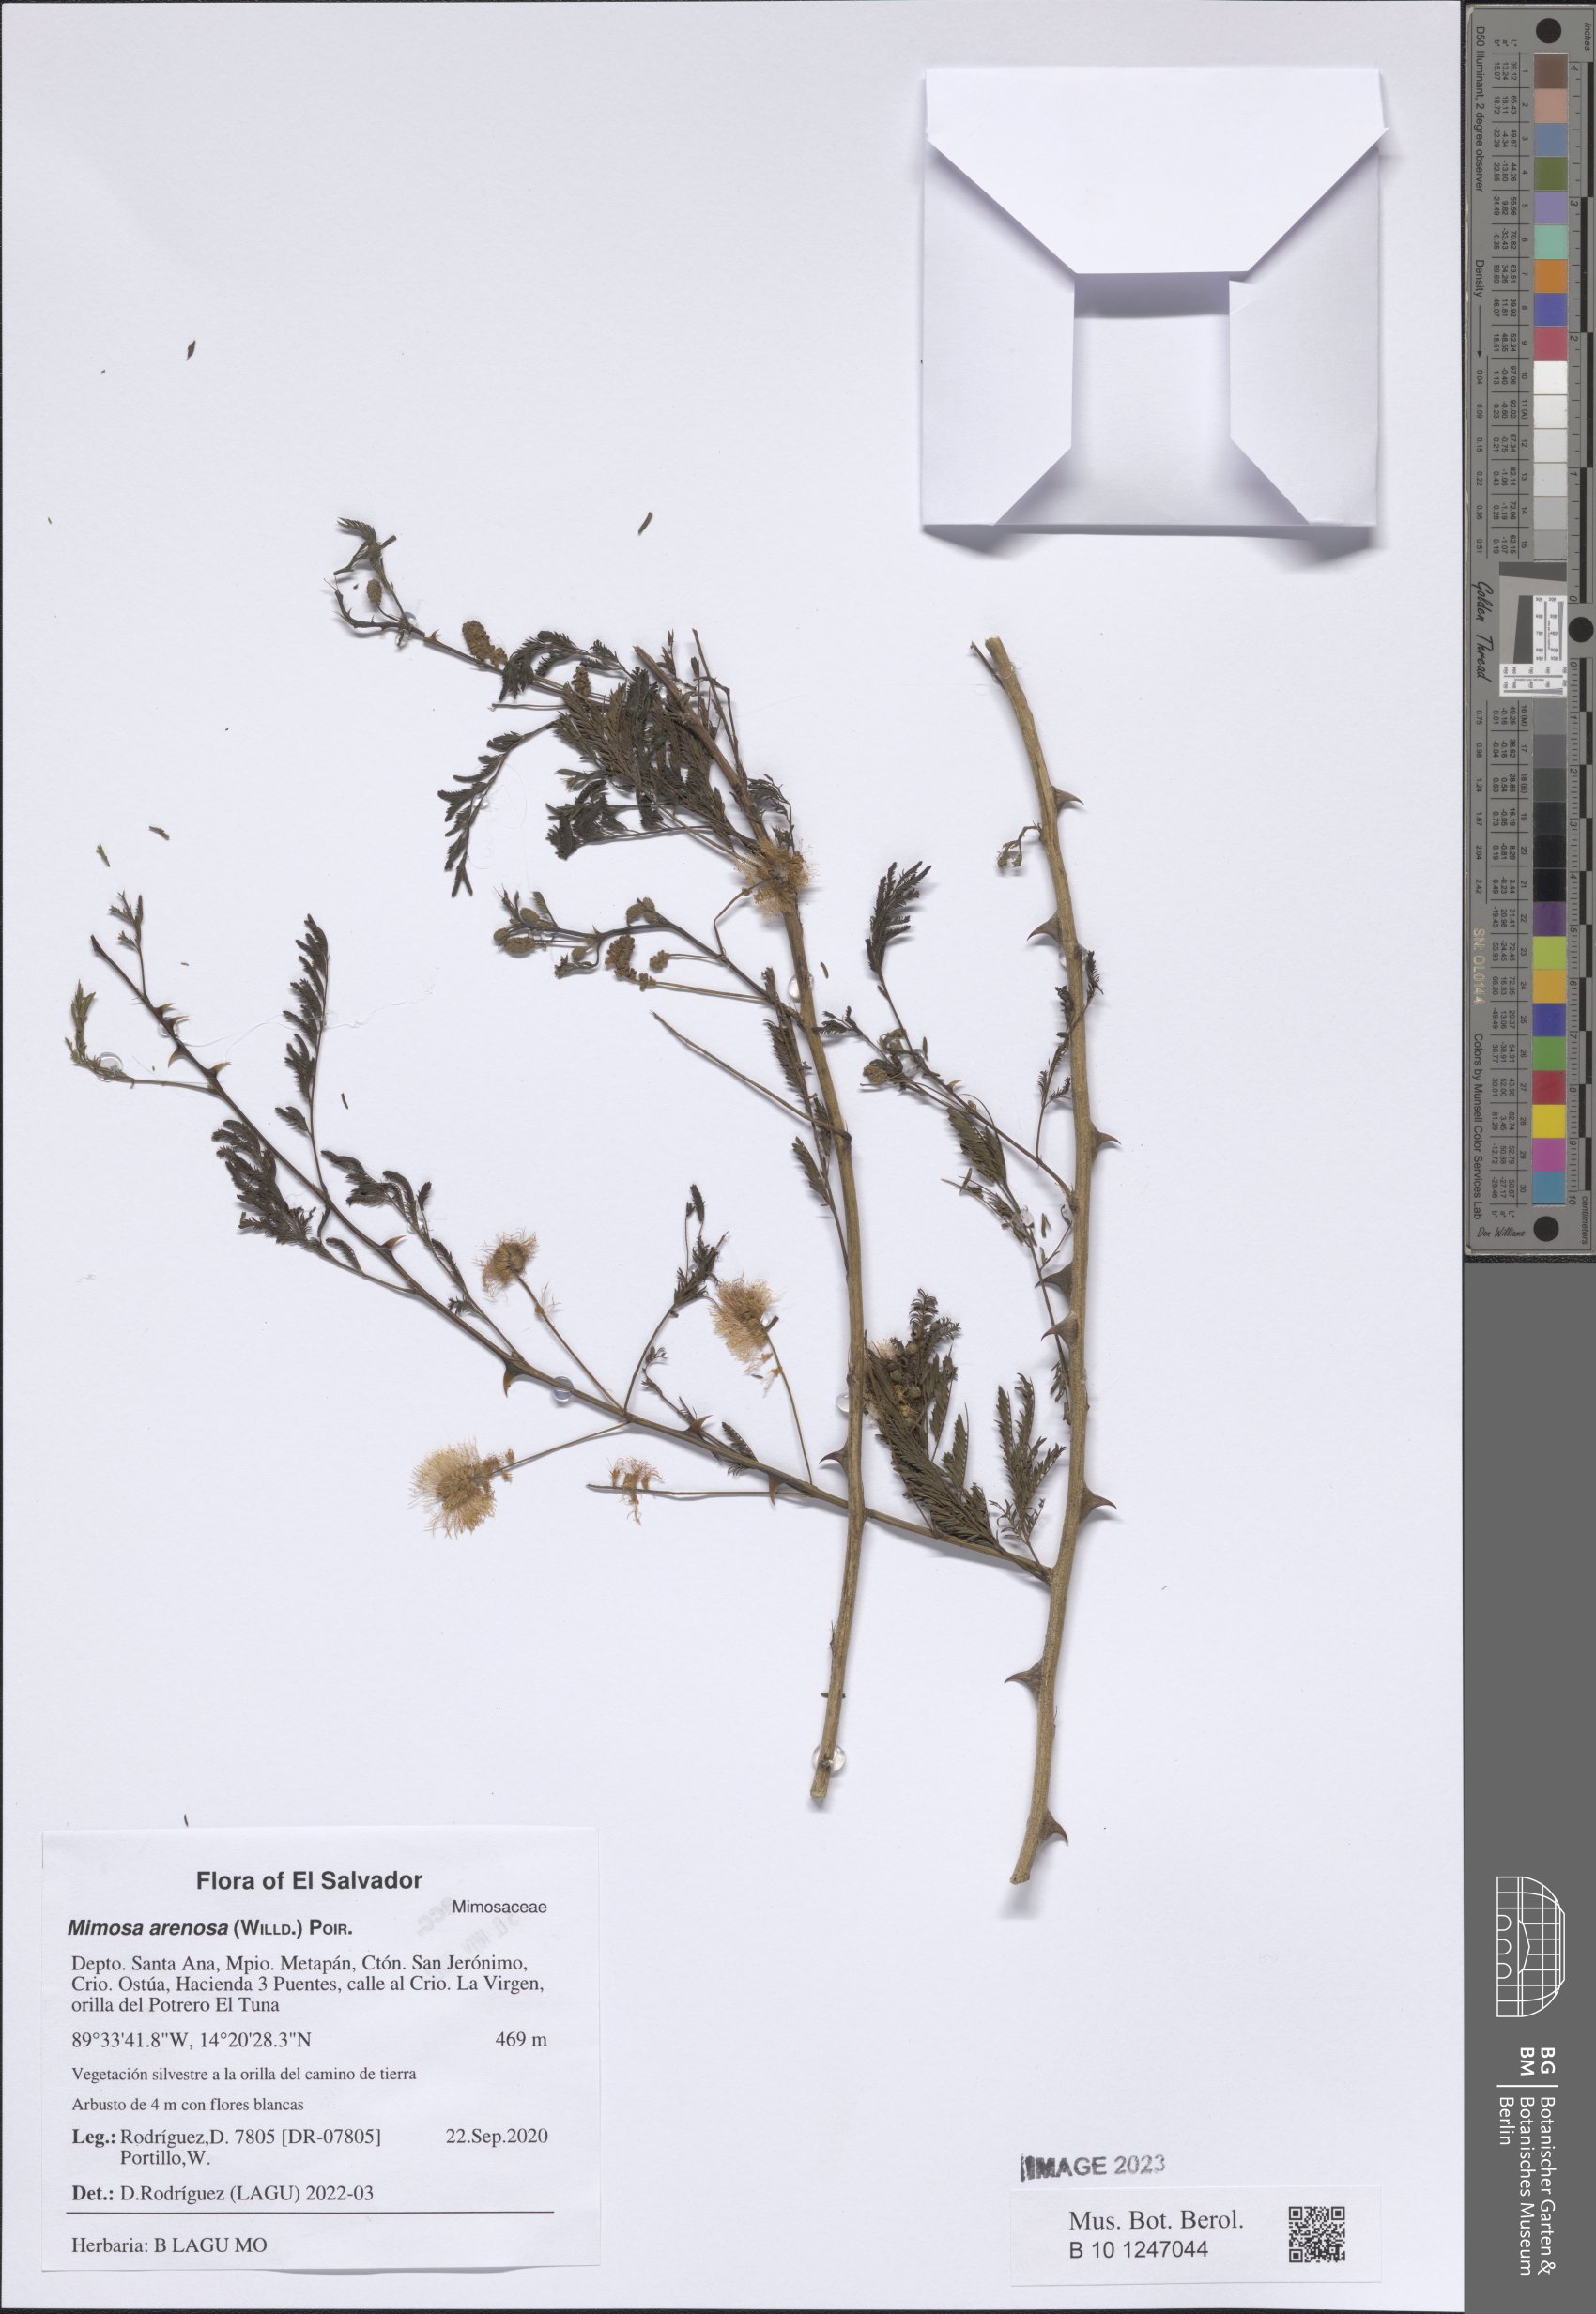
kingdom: Plantae
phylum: Tracheophyta
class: Magnoliopsida
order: Fabales
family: Fabaceae
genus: Mimosa
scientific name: Mimosa arenosa
